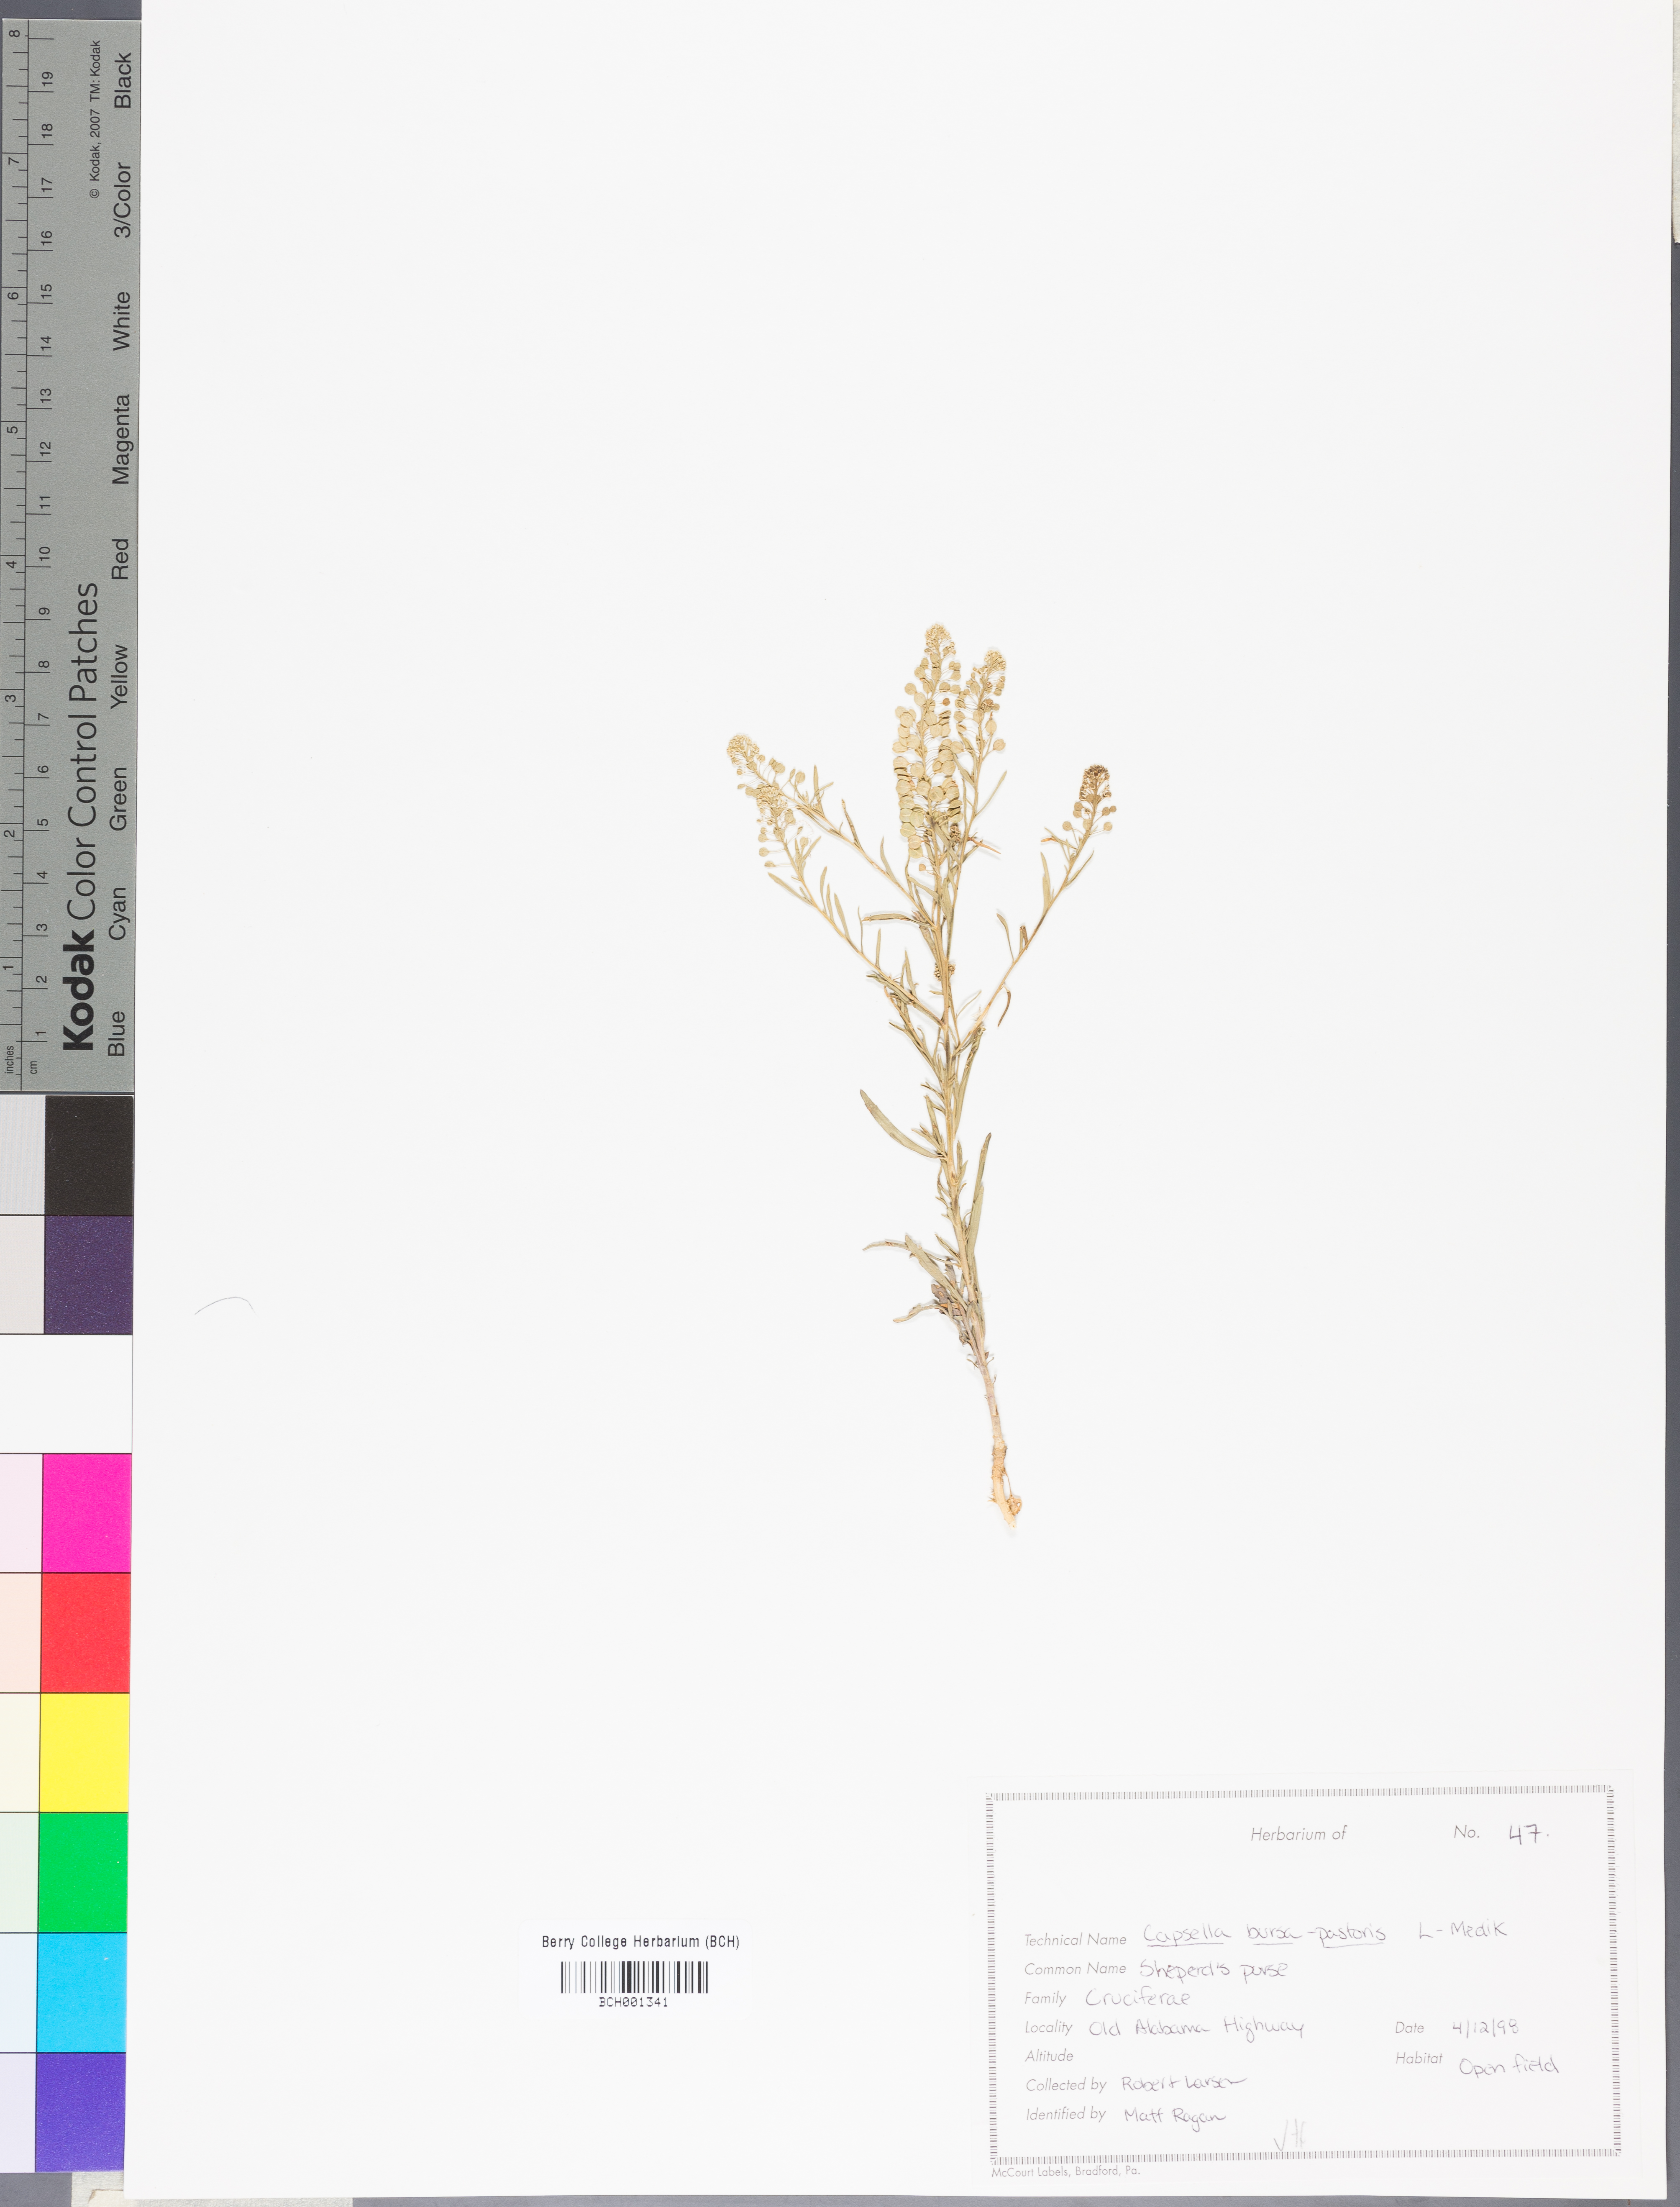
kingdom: Plantae
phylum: Tracheophyta
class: Magnoliopsida
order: Brassicales
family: Brassicaceae
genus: Capsella
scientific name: Capsella bursa-pastoris
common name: Shepherd's purse
